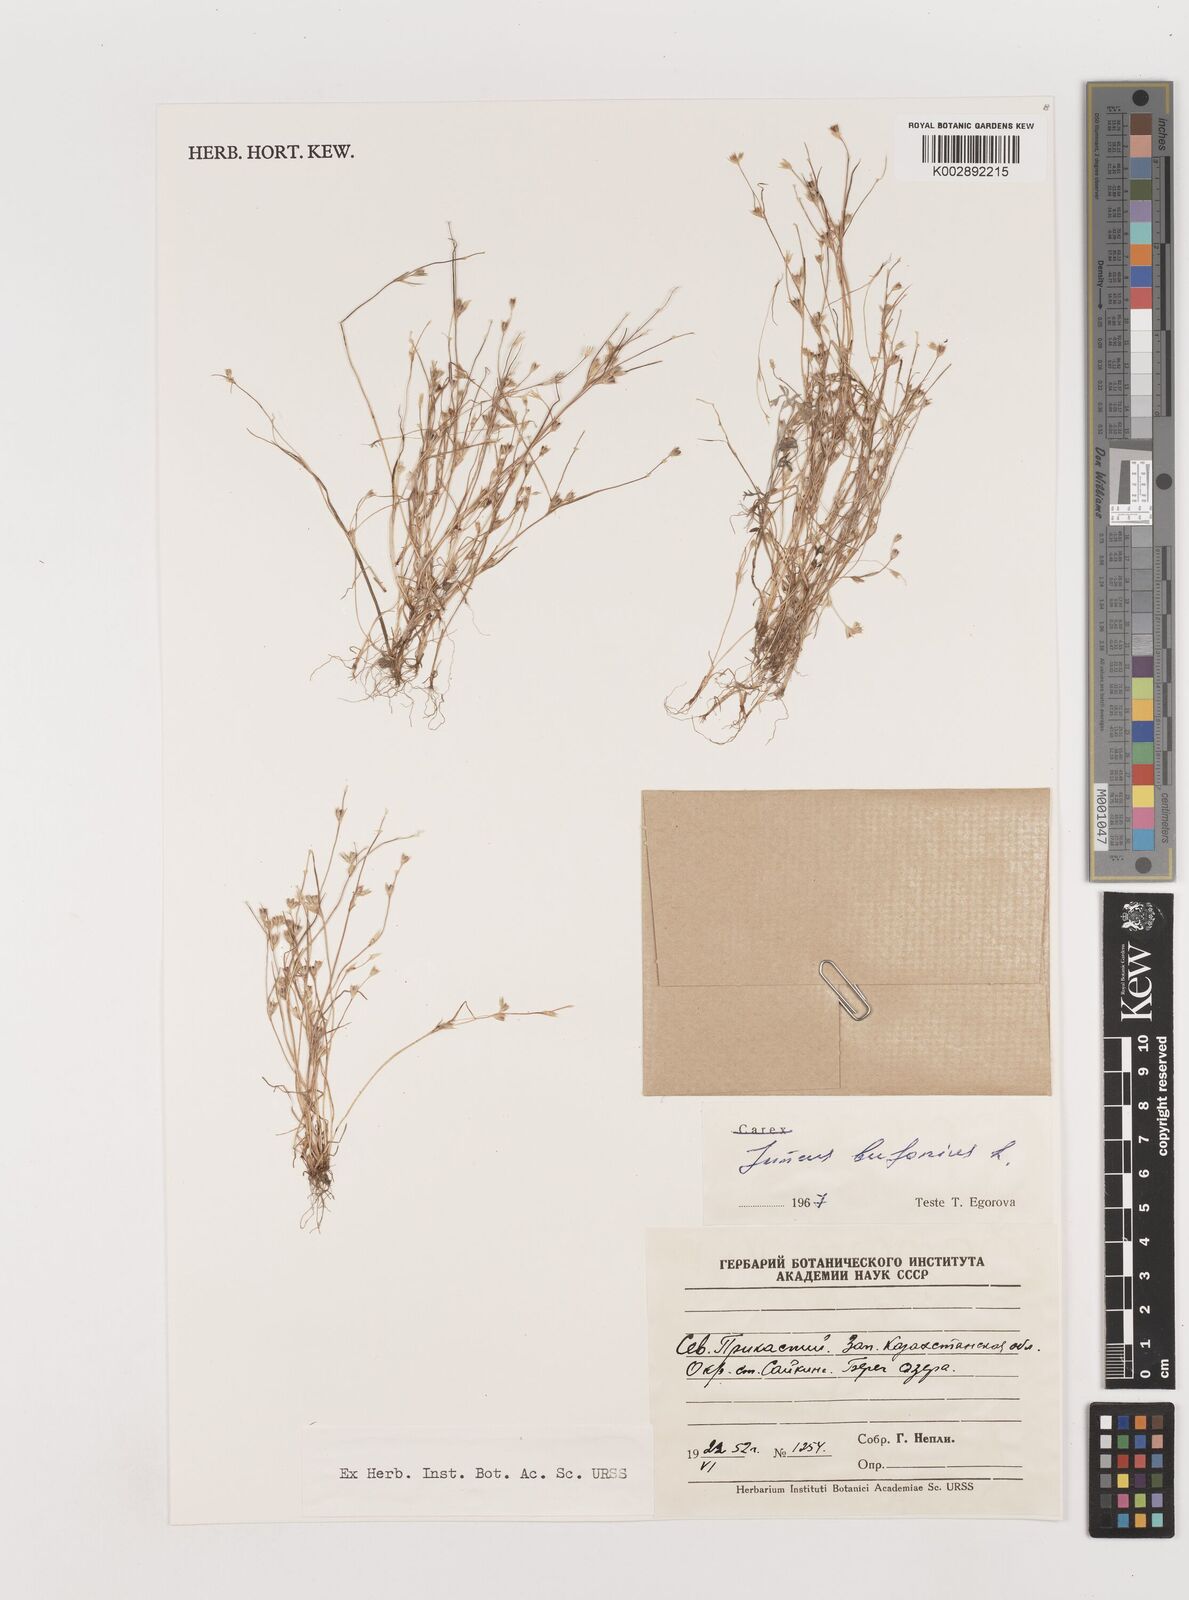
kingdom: Plantae
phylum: Tracheophyta
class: Liliopsida
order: Poales
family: Juncaceae
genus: Juncus
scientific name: Juncus bufonius
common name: Toad rush
